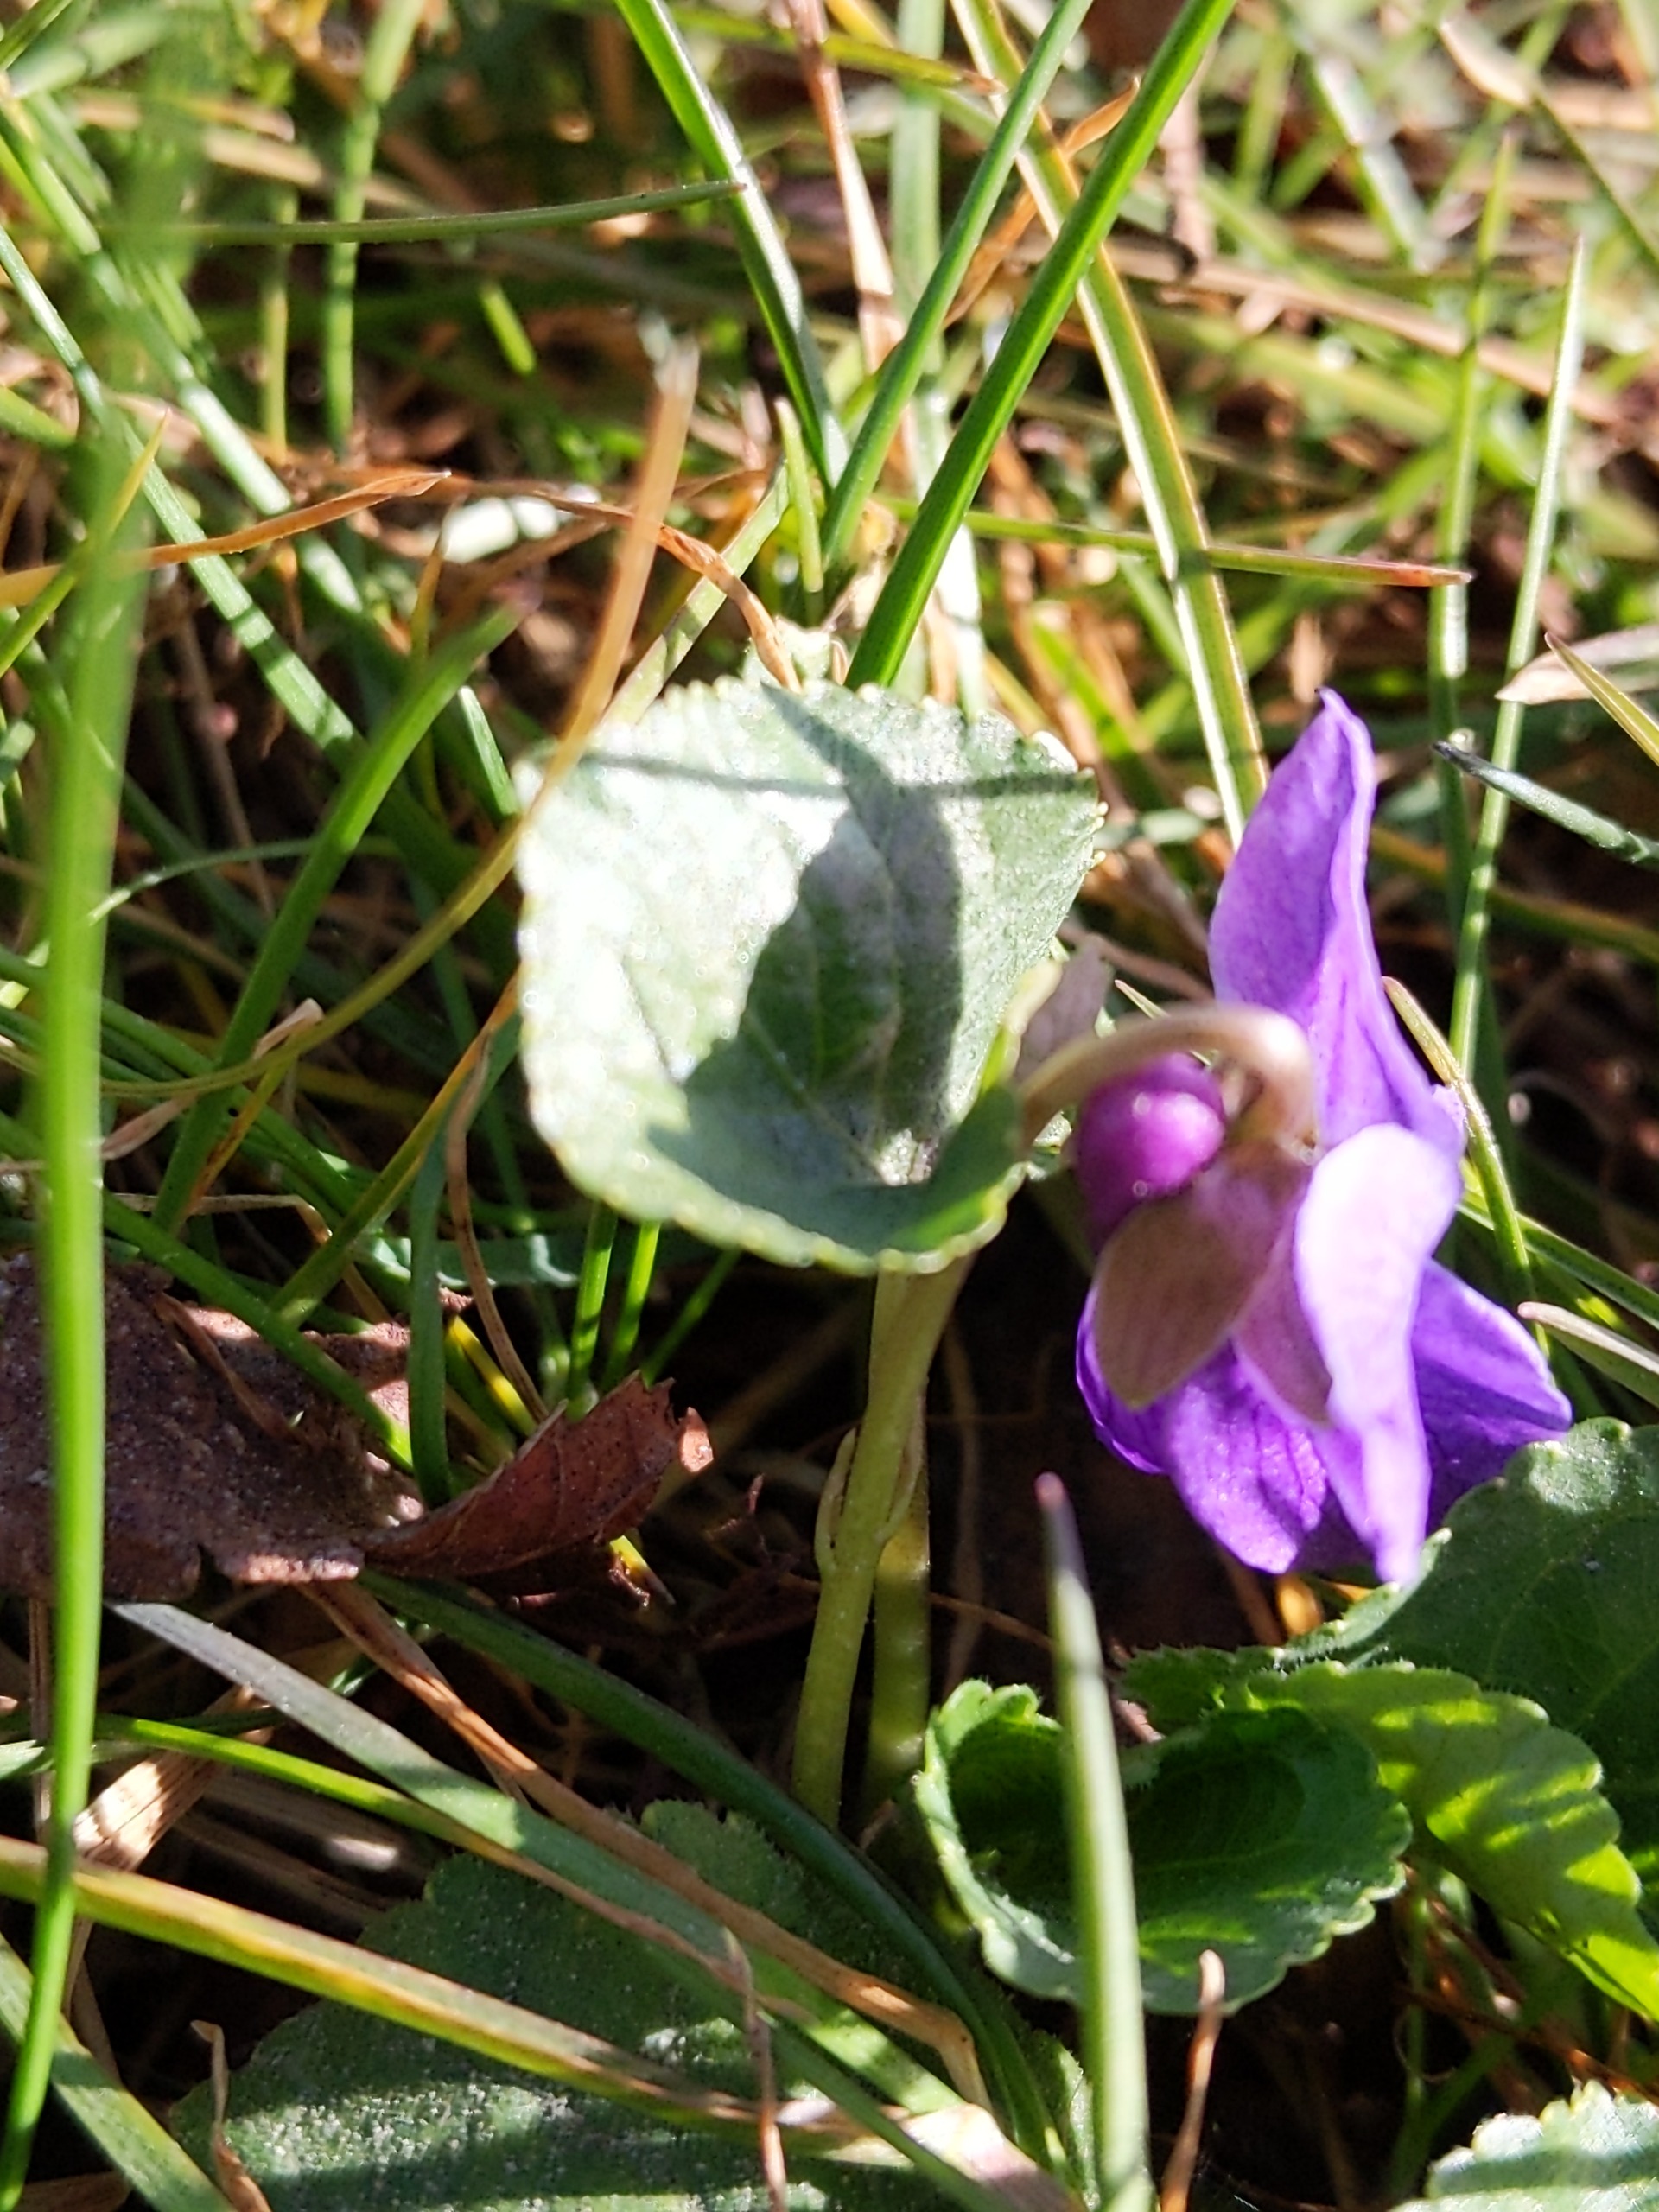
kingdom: Plantae
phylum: Tracheophyta
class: Magnoliopsida
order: Malpighiales
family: Violaceae
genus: Viola
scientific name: Viola odorata
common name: Marts-viol
